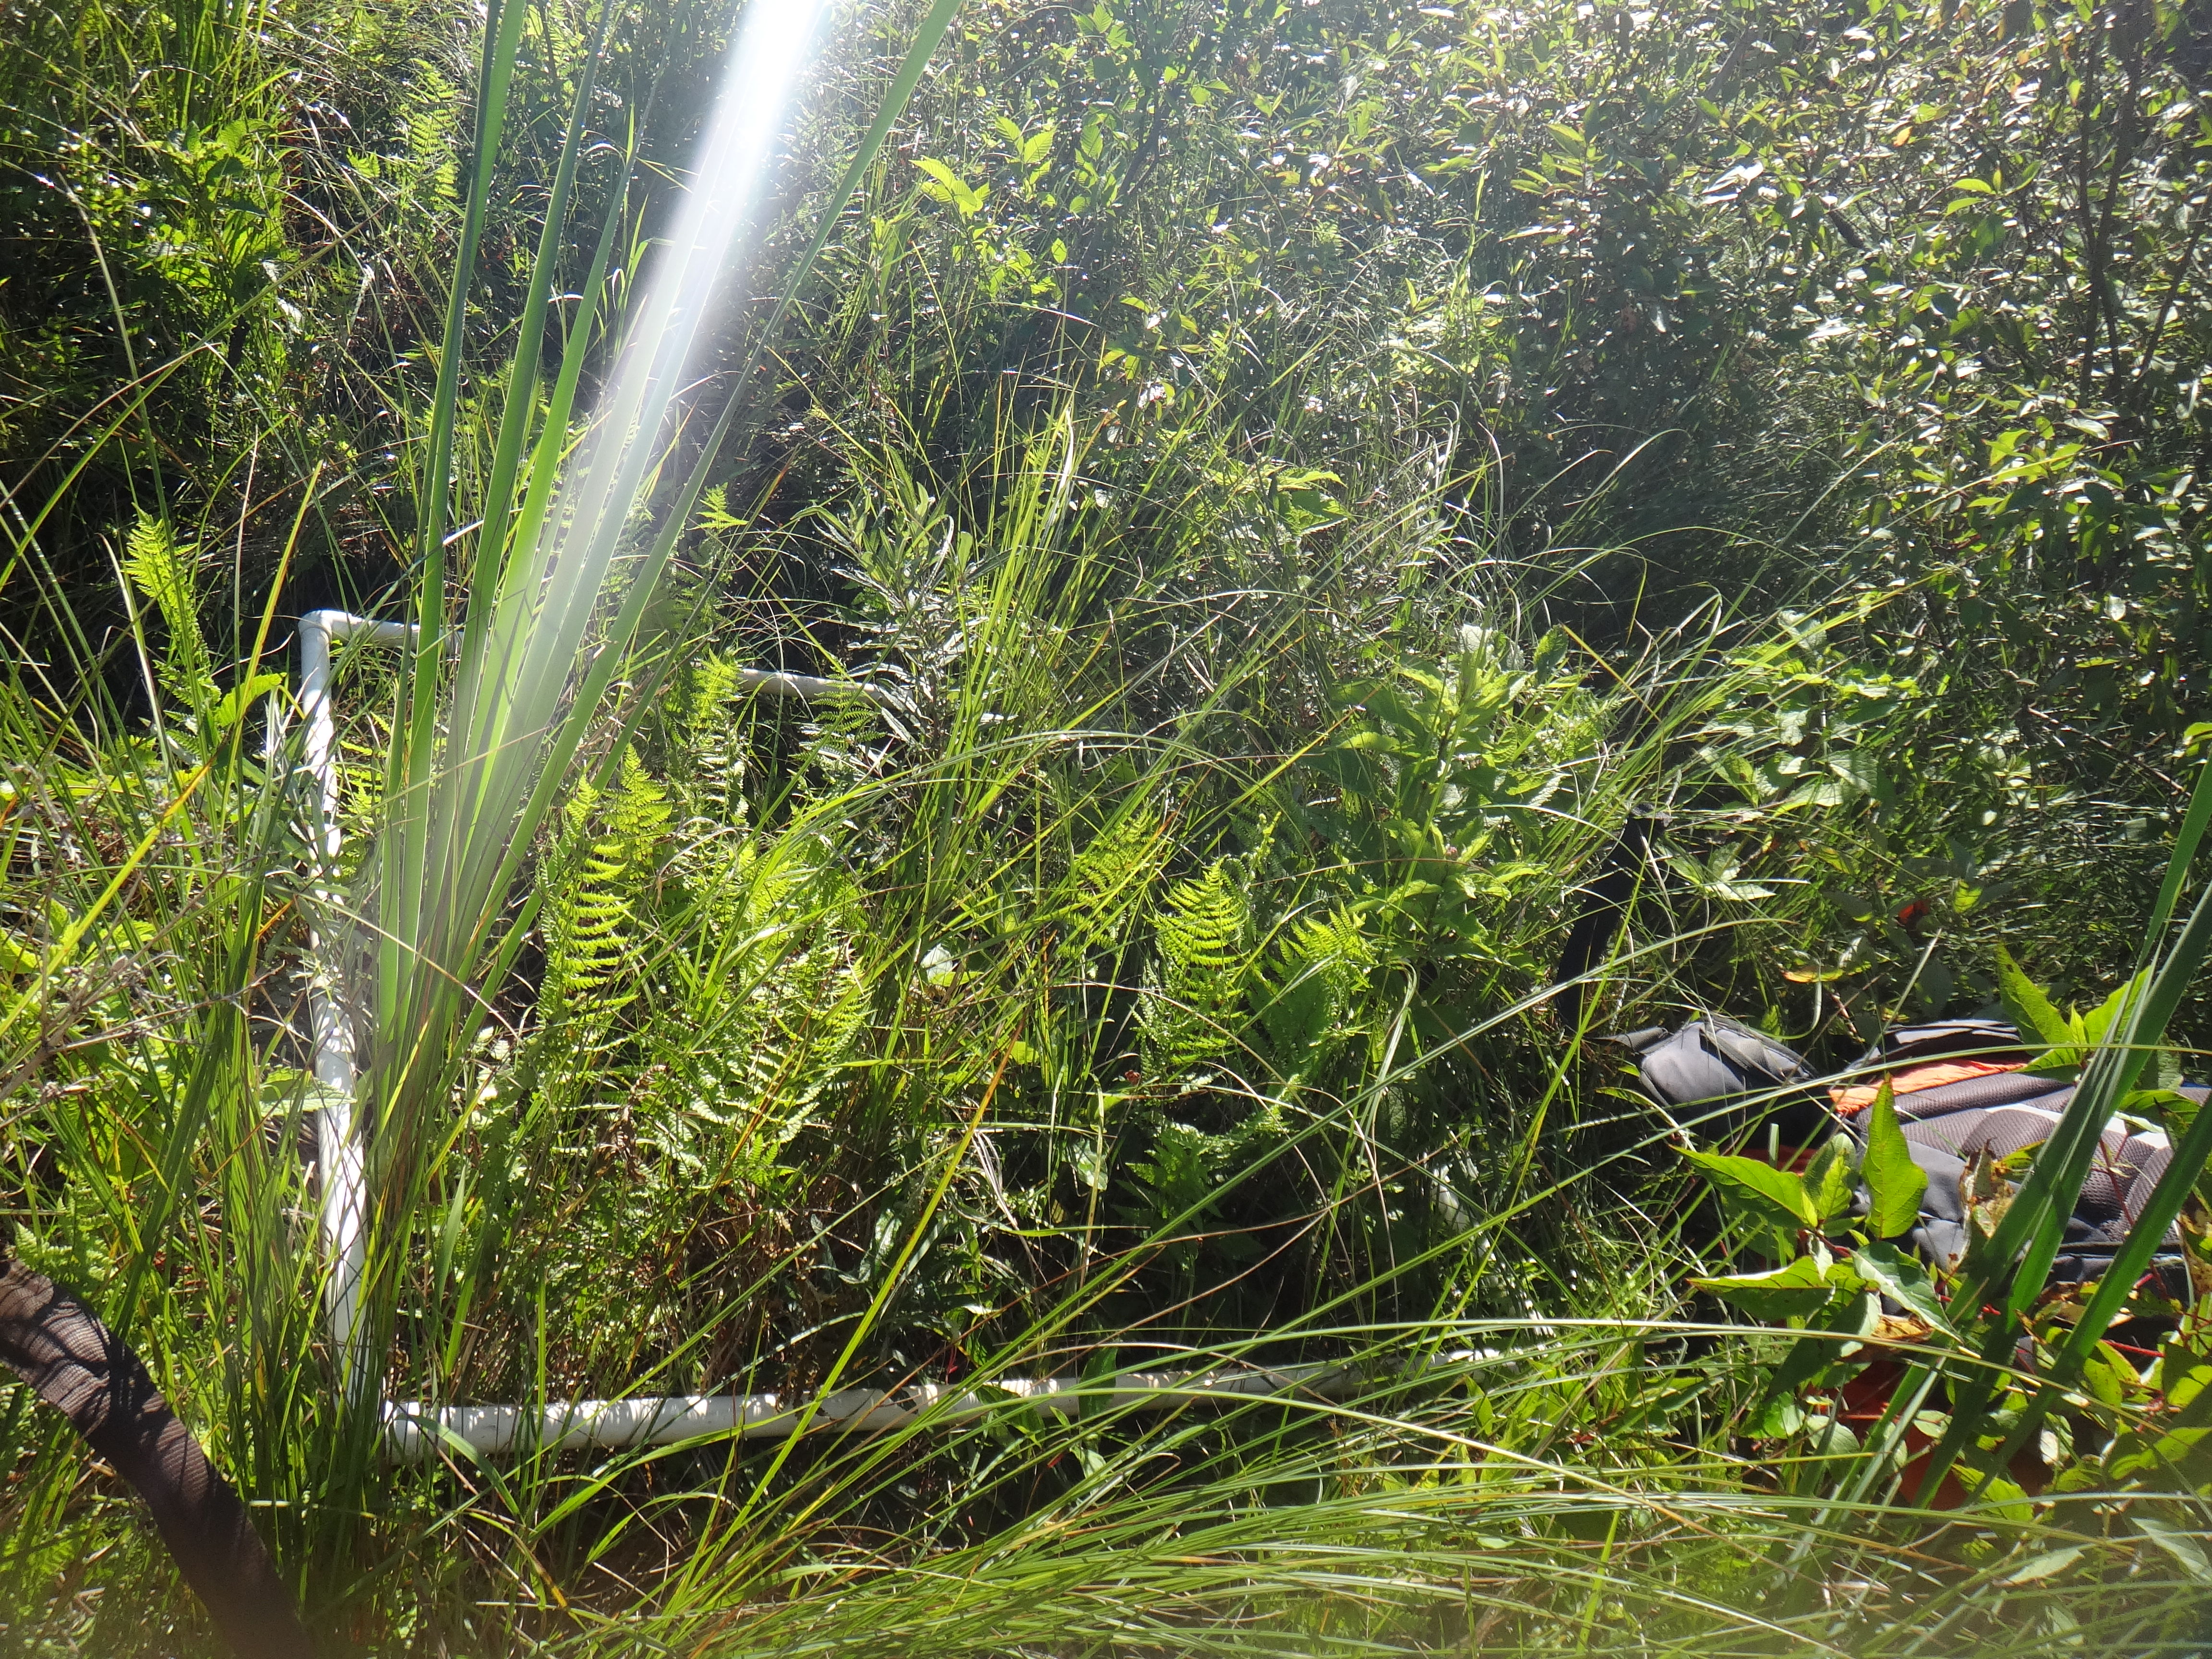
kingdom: Plantae
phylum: Tracheophyta
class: Liliopsida
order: Poales
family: Cyperaceae
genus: Carex
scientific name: Carex sartwellii
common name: Sartwell's sedge
